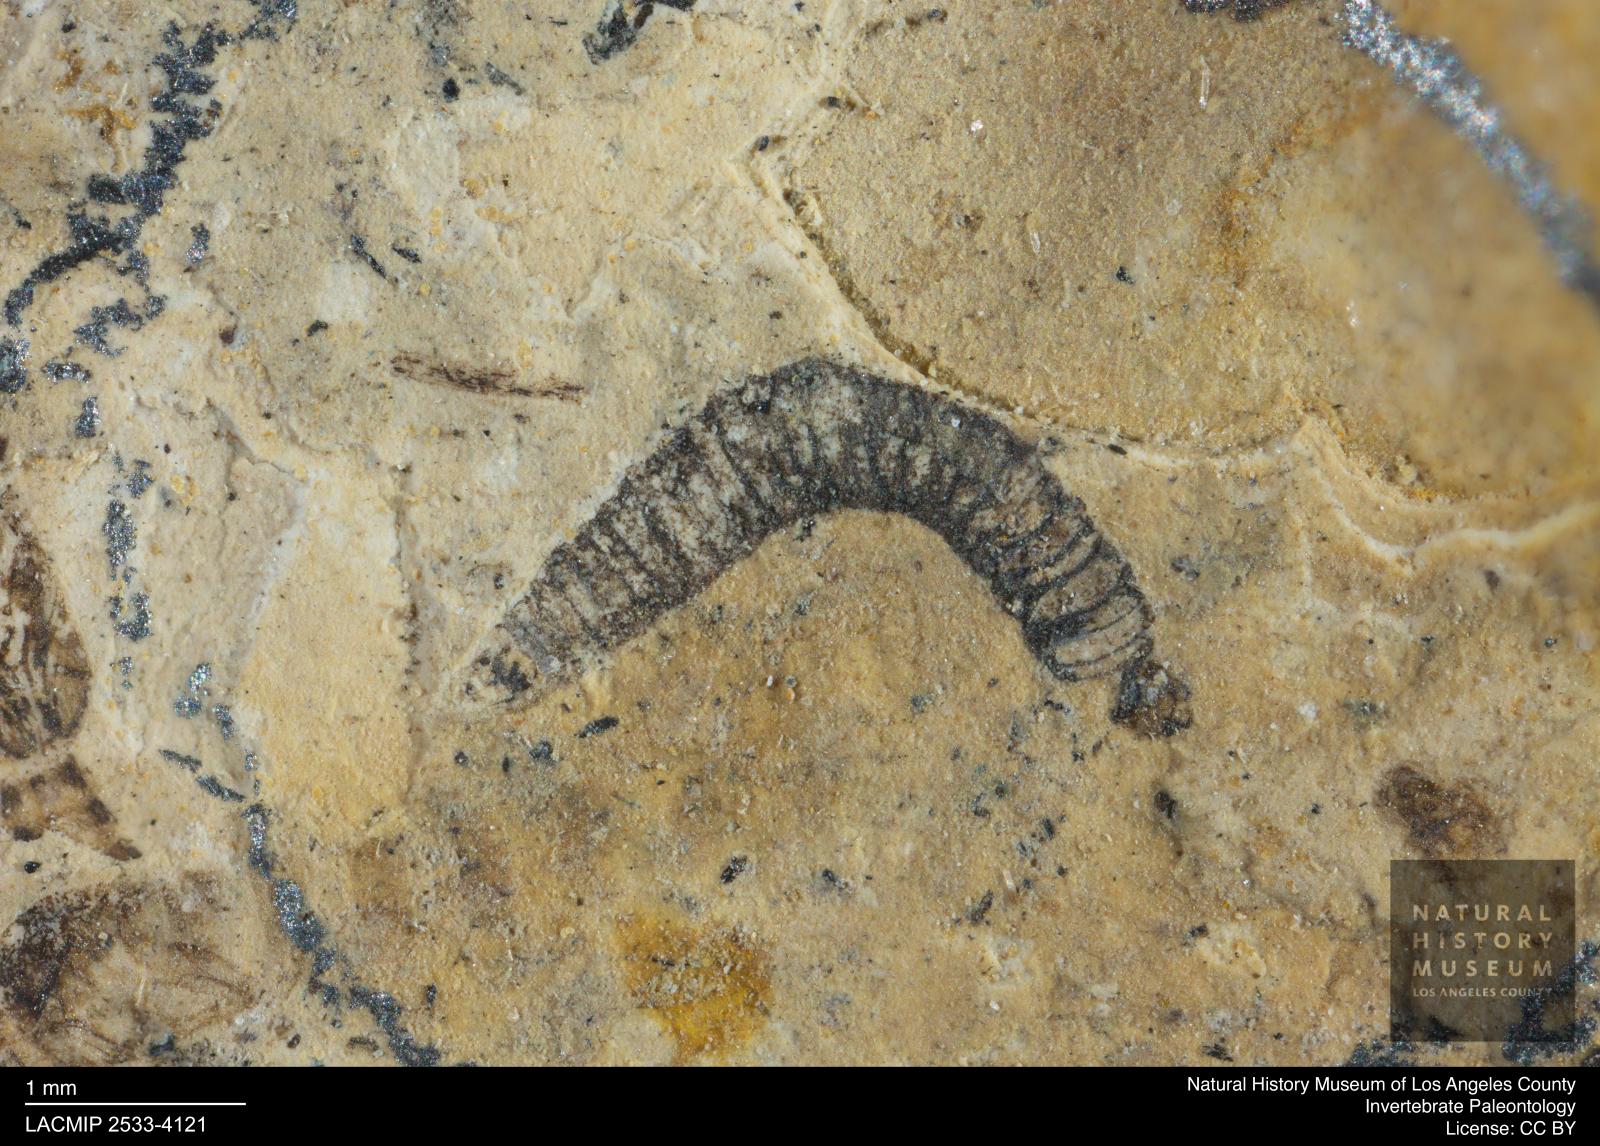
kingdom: Animalia
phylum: Arthropoda
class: Insecta
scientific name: Insecta
